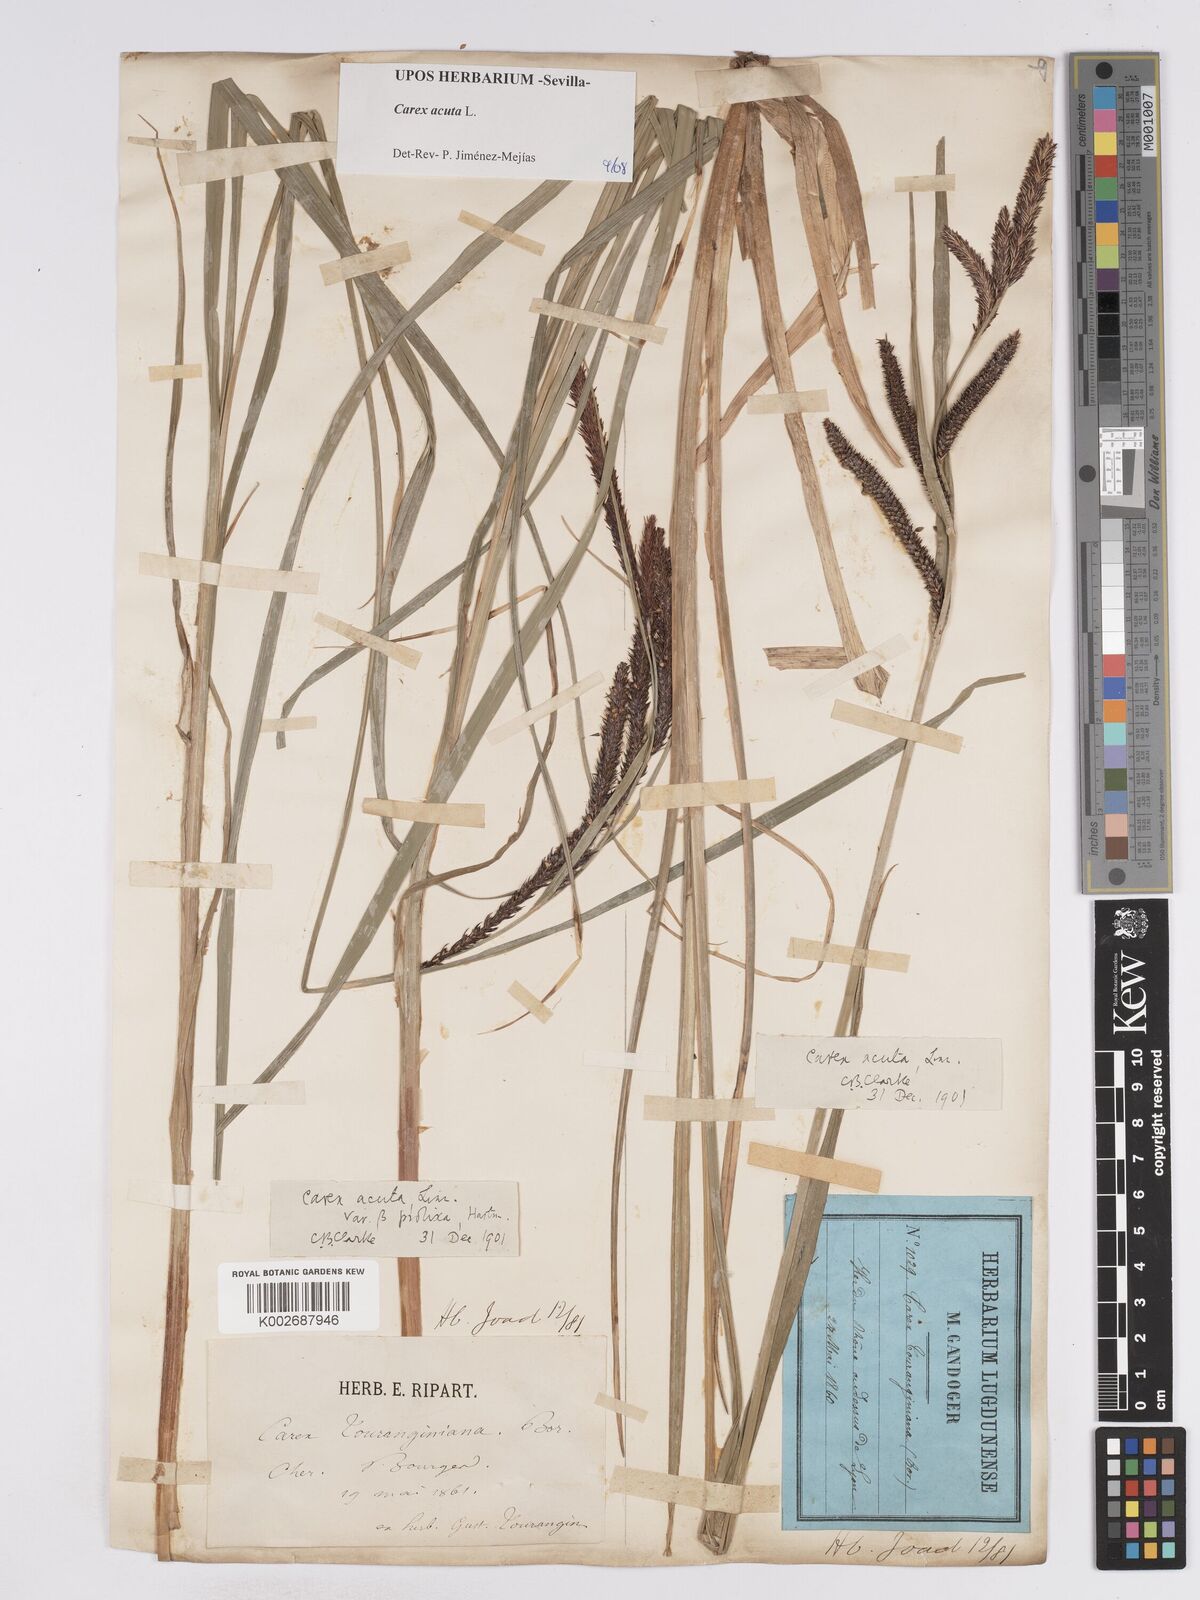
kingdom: Plantae
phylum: Tracheophyta
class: Liliopsida
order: Poales
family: Cyperaceae
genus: Carex
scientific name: Carex acuta
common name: Slender tufted-sedge
